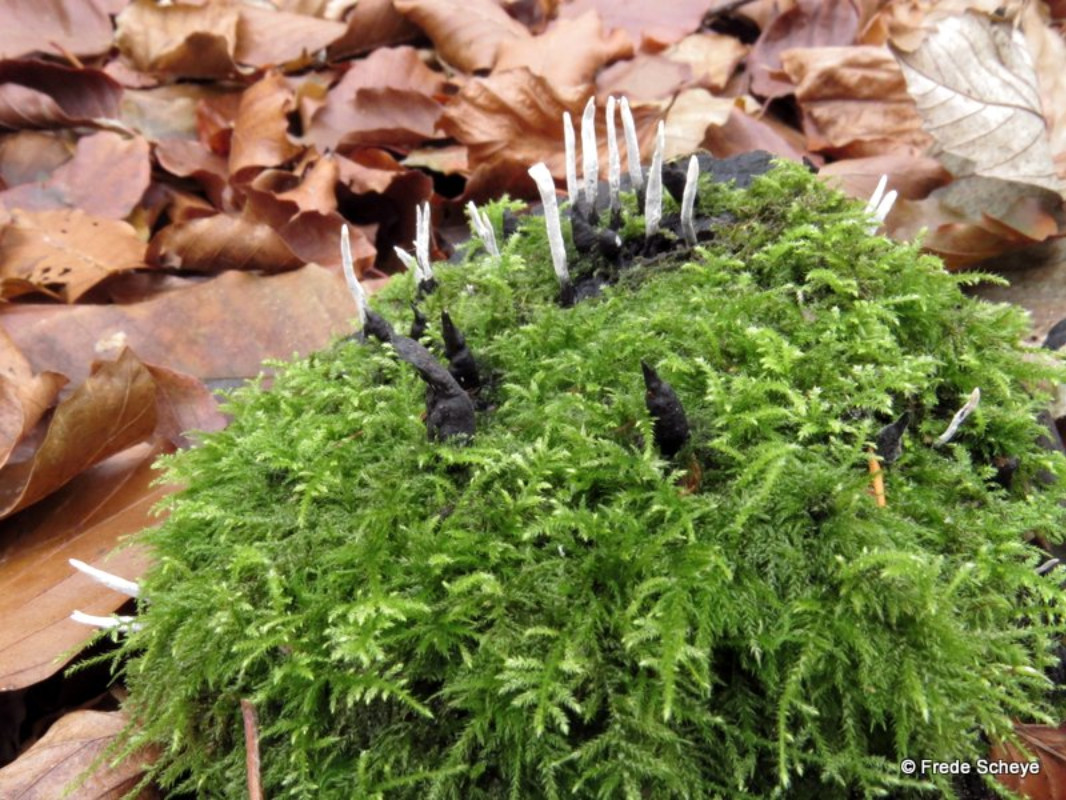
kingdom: Fungi
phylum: Ascomycota
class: Sordariomycetes
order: Xylariales
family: Xylariaceae
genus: Xylaria
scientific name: Xylaria hypoxylon
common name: grenet stødsvamp
